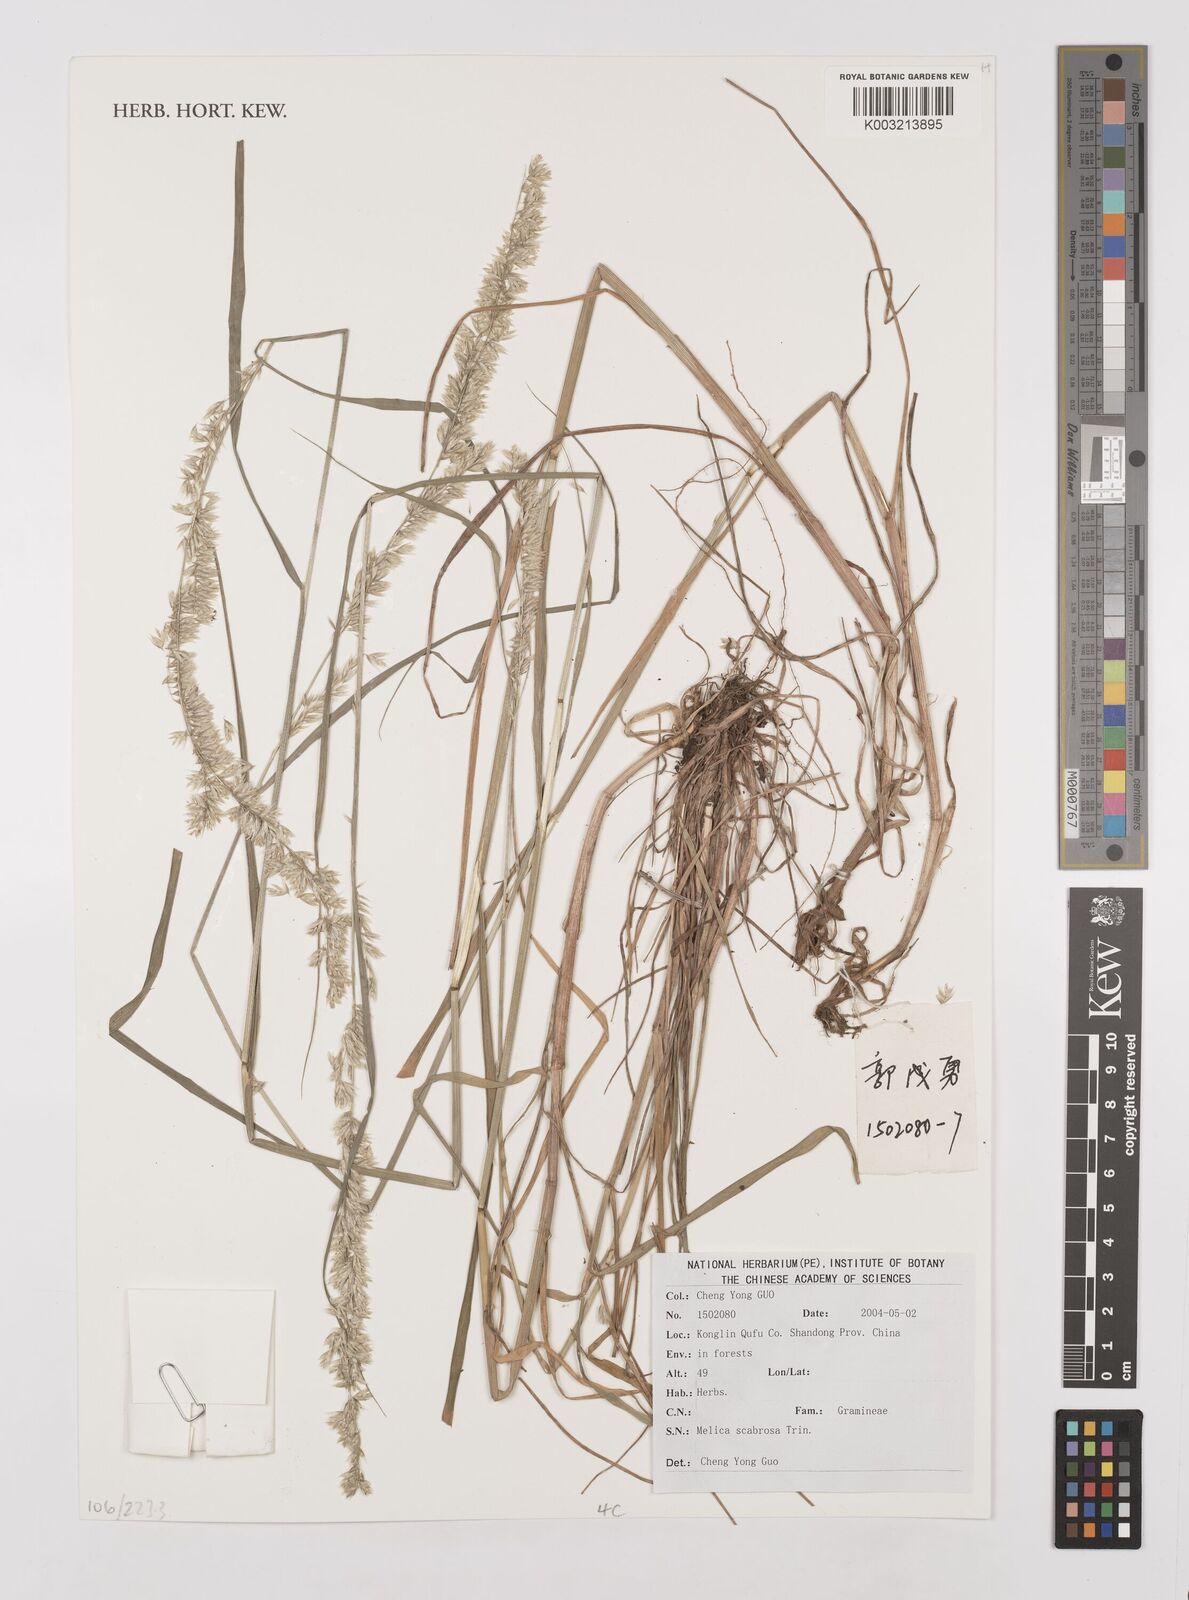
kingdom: Plantae
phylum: Tracheophyta
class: Liliopsida
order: Poales
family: Poaceae
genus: Melica
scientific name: Melica scabrosa
